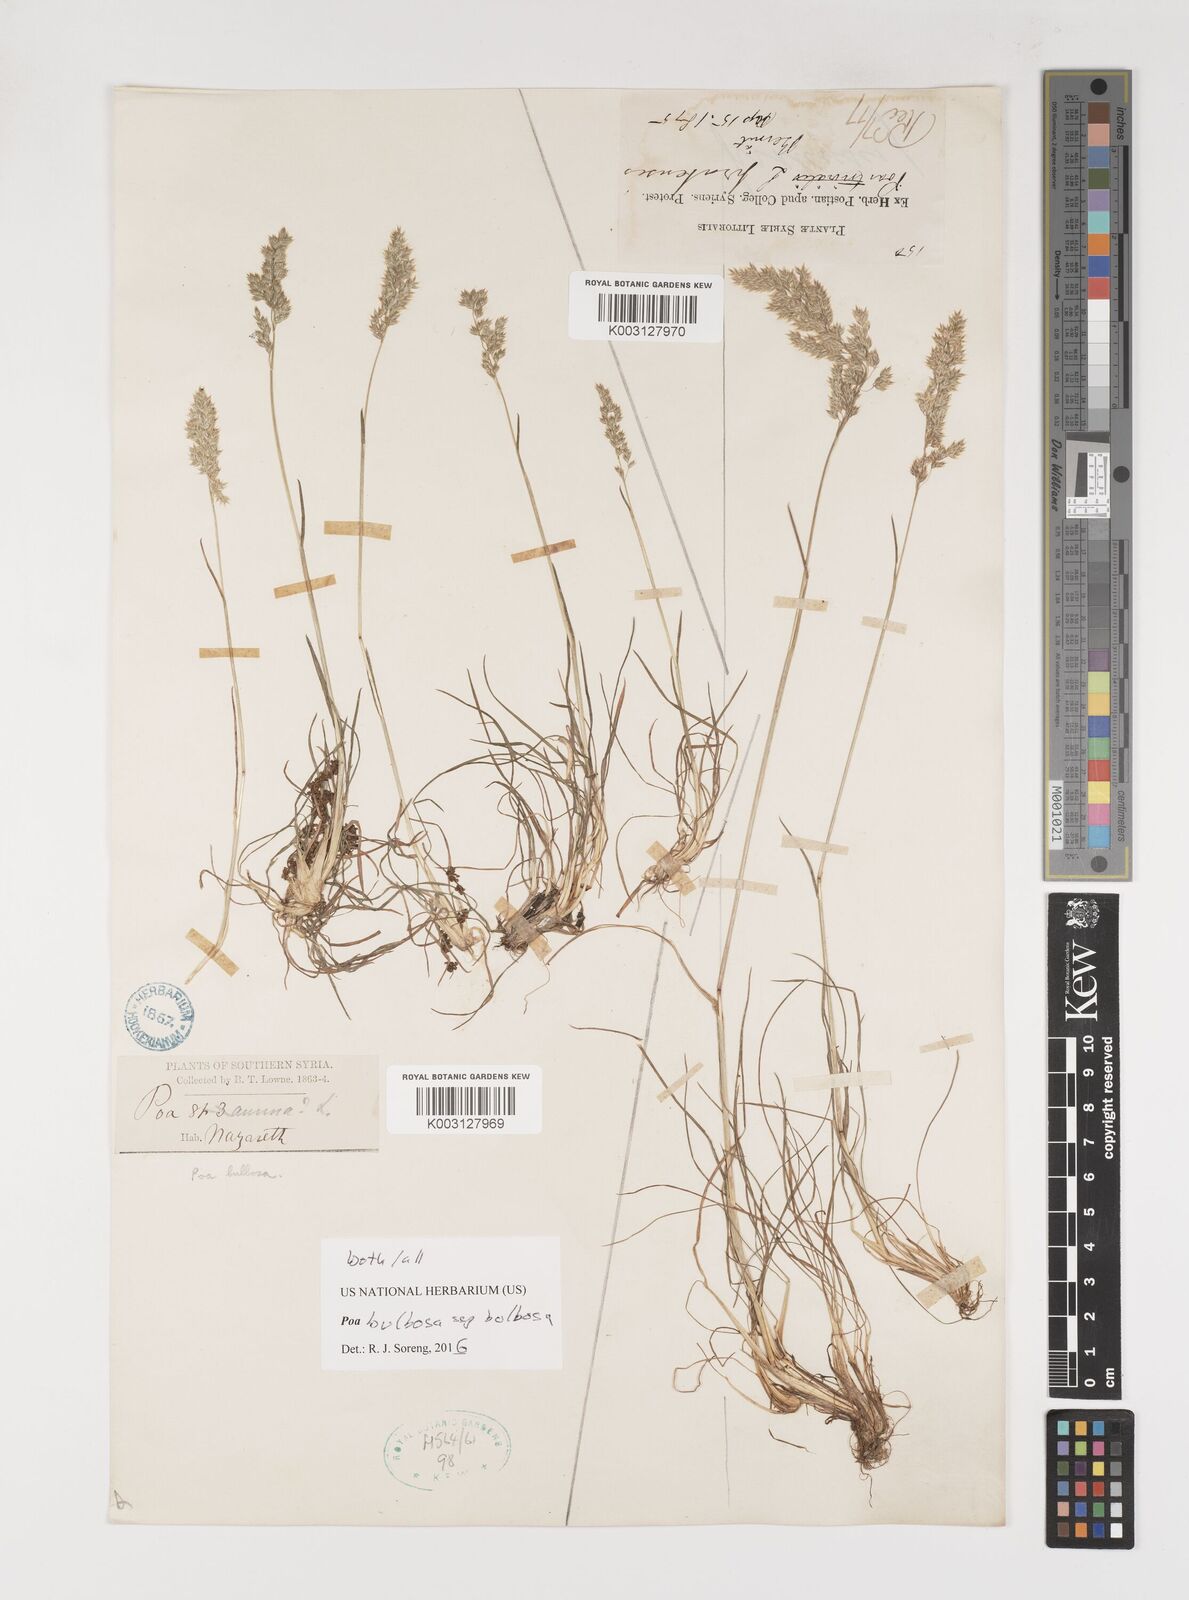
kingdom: Plantae
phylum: Tracheophyta
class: Liliopsida
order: Poales
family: Poaceae
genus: Poa
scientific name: Poa bulbosa
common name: Bulbous bluegrass
